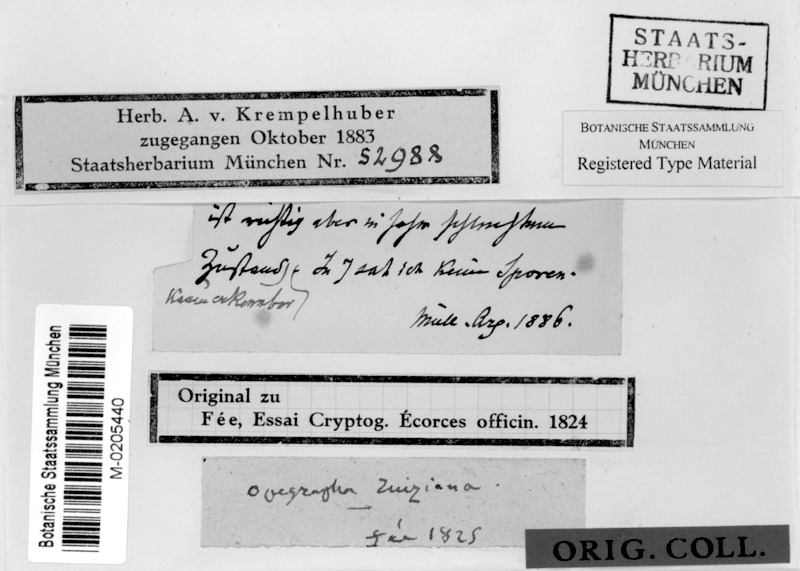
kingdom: Fungi
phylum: Ascomycota
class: Lecanoromycetes
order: Ostropales
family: Graphidaceae
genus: Allographa
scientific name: Allographa ruiziana
